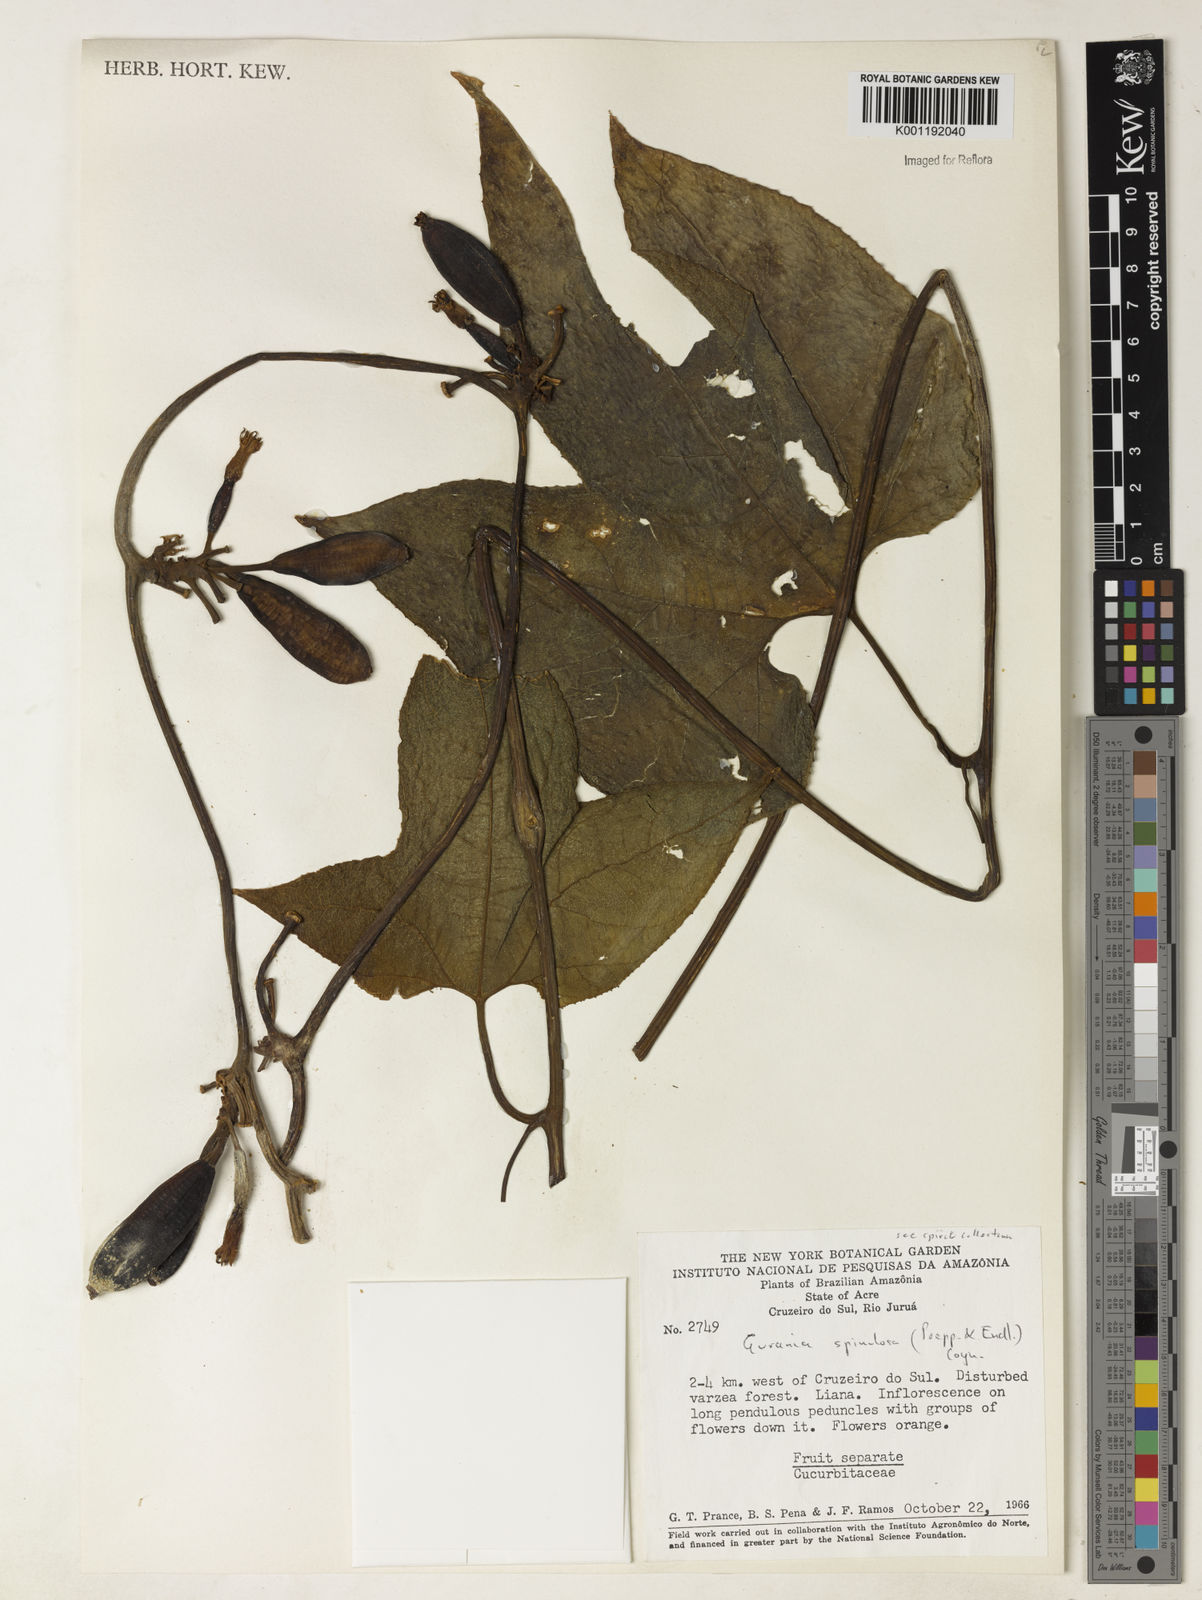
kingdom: Plantae
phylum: Tracheophyta
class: Magnoliopsida
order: Cucurbitales
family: Cucurbitaceae
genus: Gurania
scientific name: Gurania lobata
